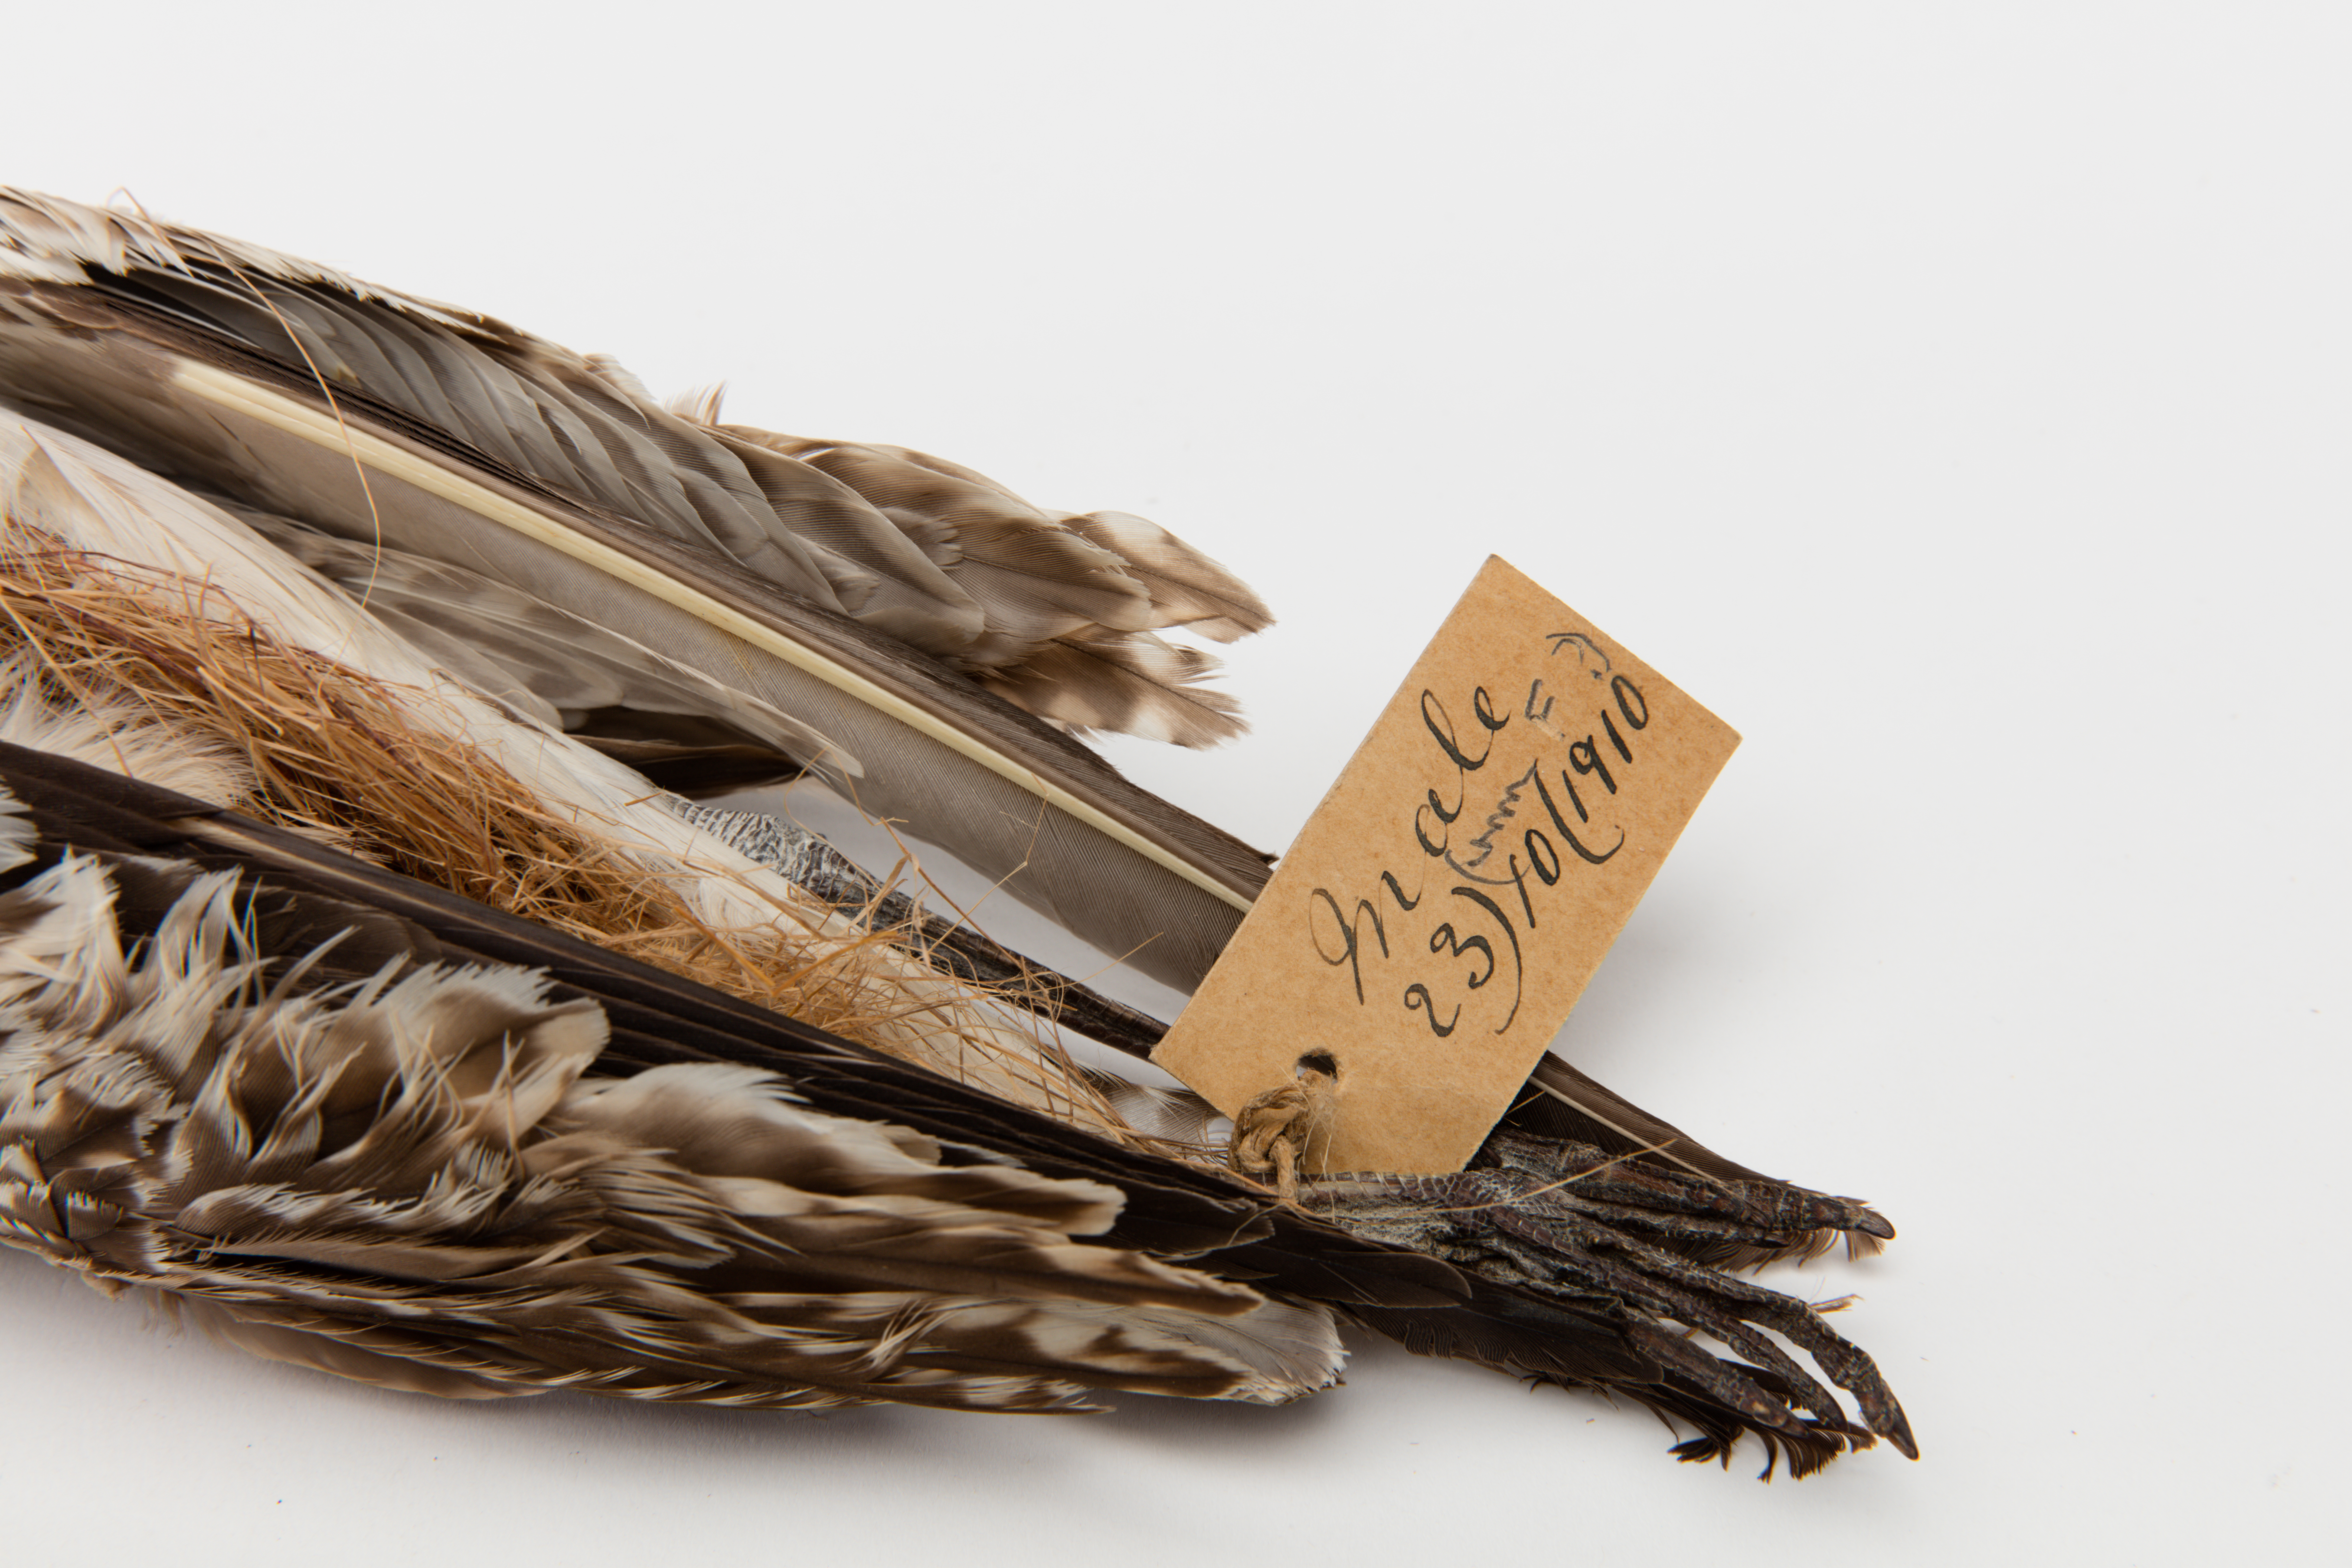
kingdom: Animalia
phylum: Chordata
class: Aves
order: Charadriiformes
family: Scolopacidae
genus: Limosa
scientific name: Limosa lapponica
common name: Bar-tailed godwit
